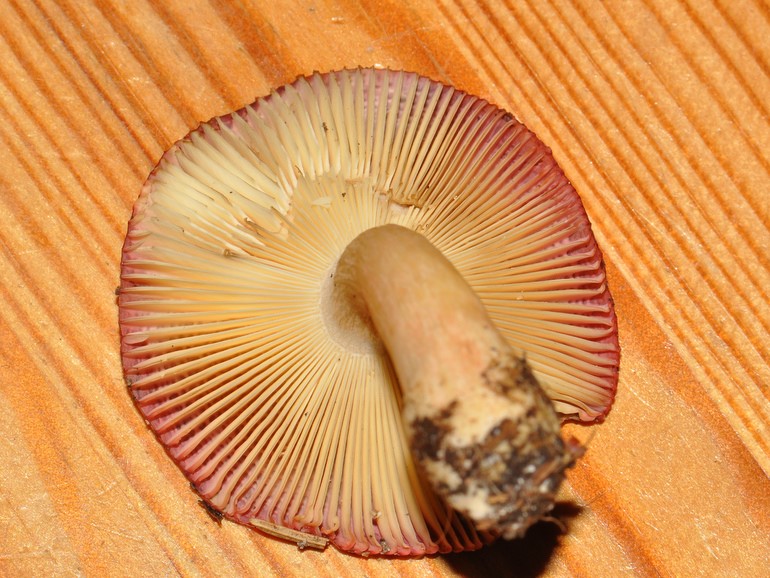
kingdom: Fungi
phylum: Basidiomycota
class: Agaricomycetes
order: Russulales
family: Russulaceae
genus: Russula
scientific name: Russula nitida
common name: året skørhat
